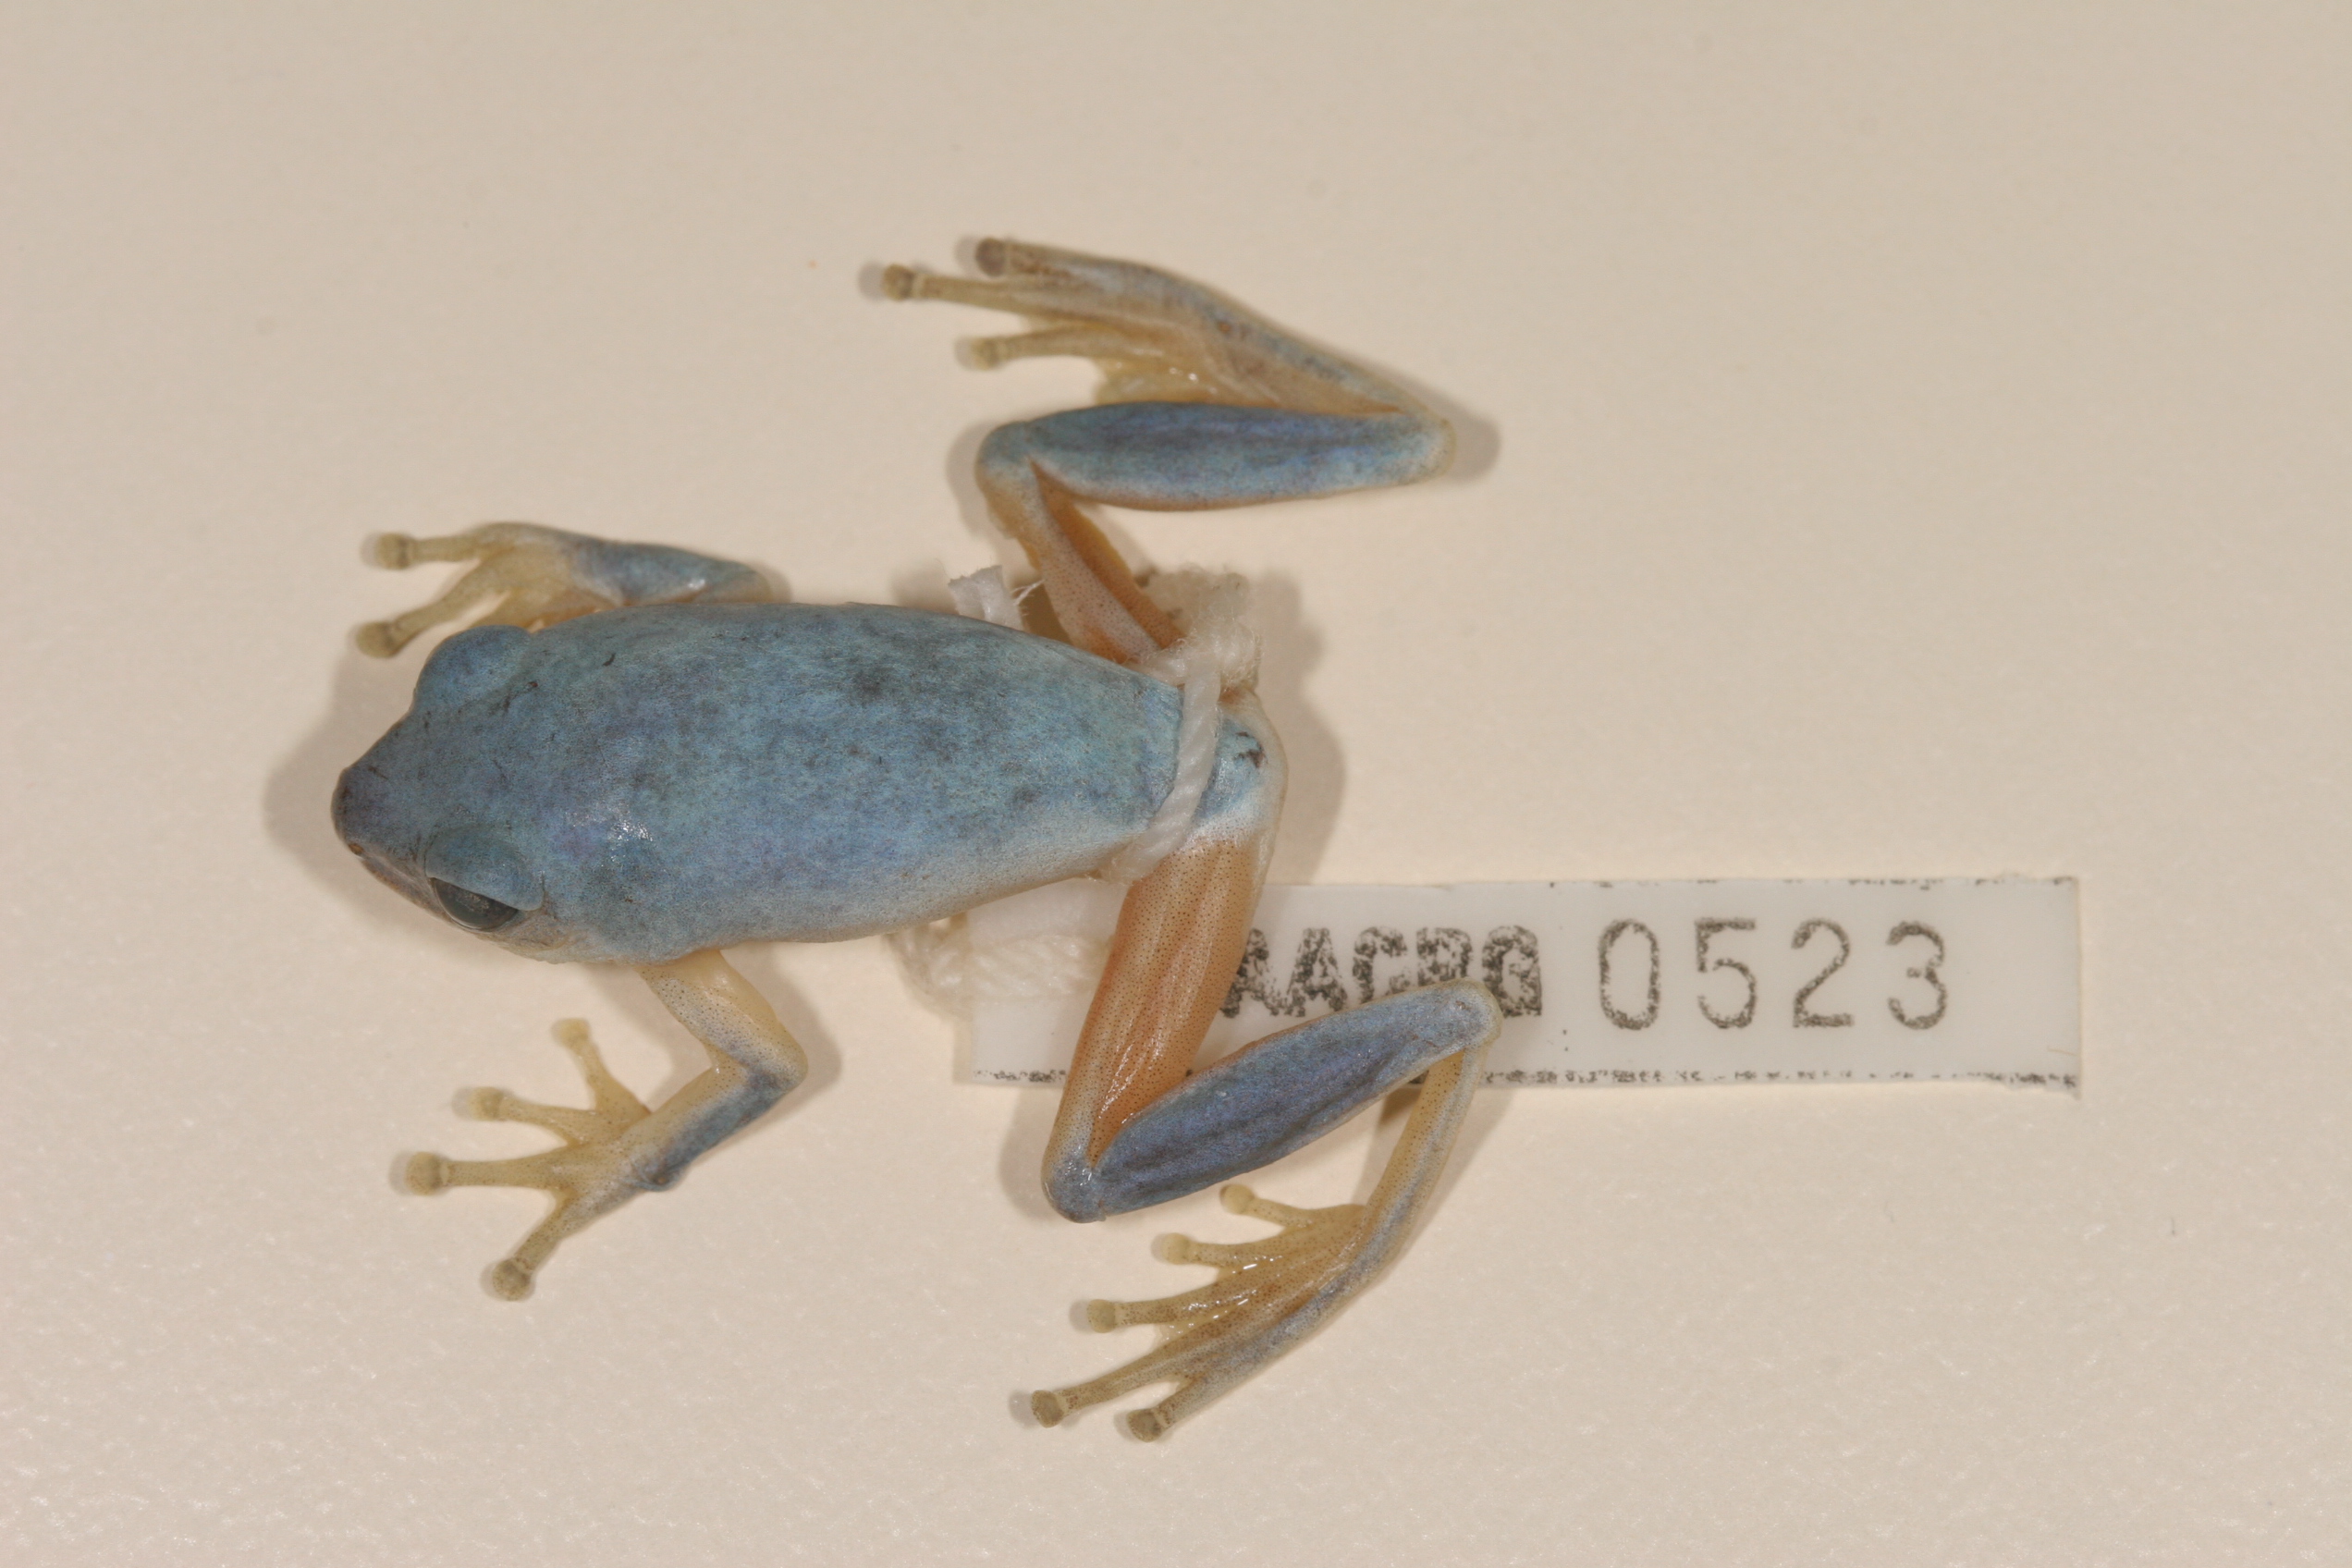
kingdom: Animalia
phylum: Chordata
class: Amphibia
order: Anura
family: Hyperoliidae
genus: Hyperolius
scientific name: Hyperolius tuberilinguis
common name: Tinker reed frog
